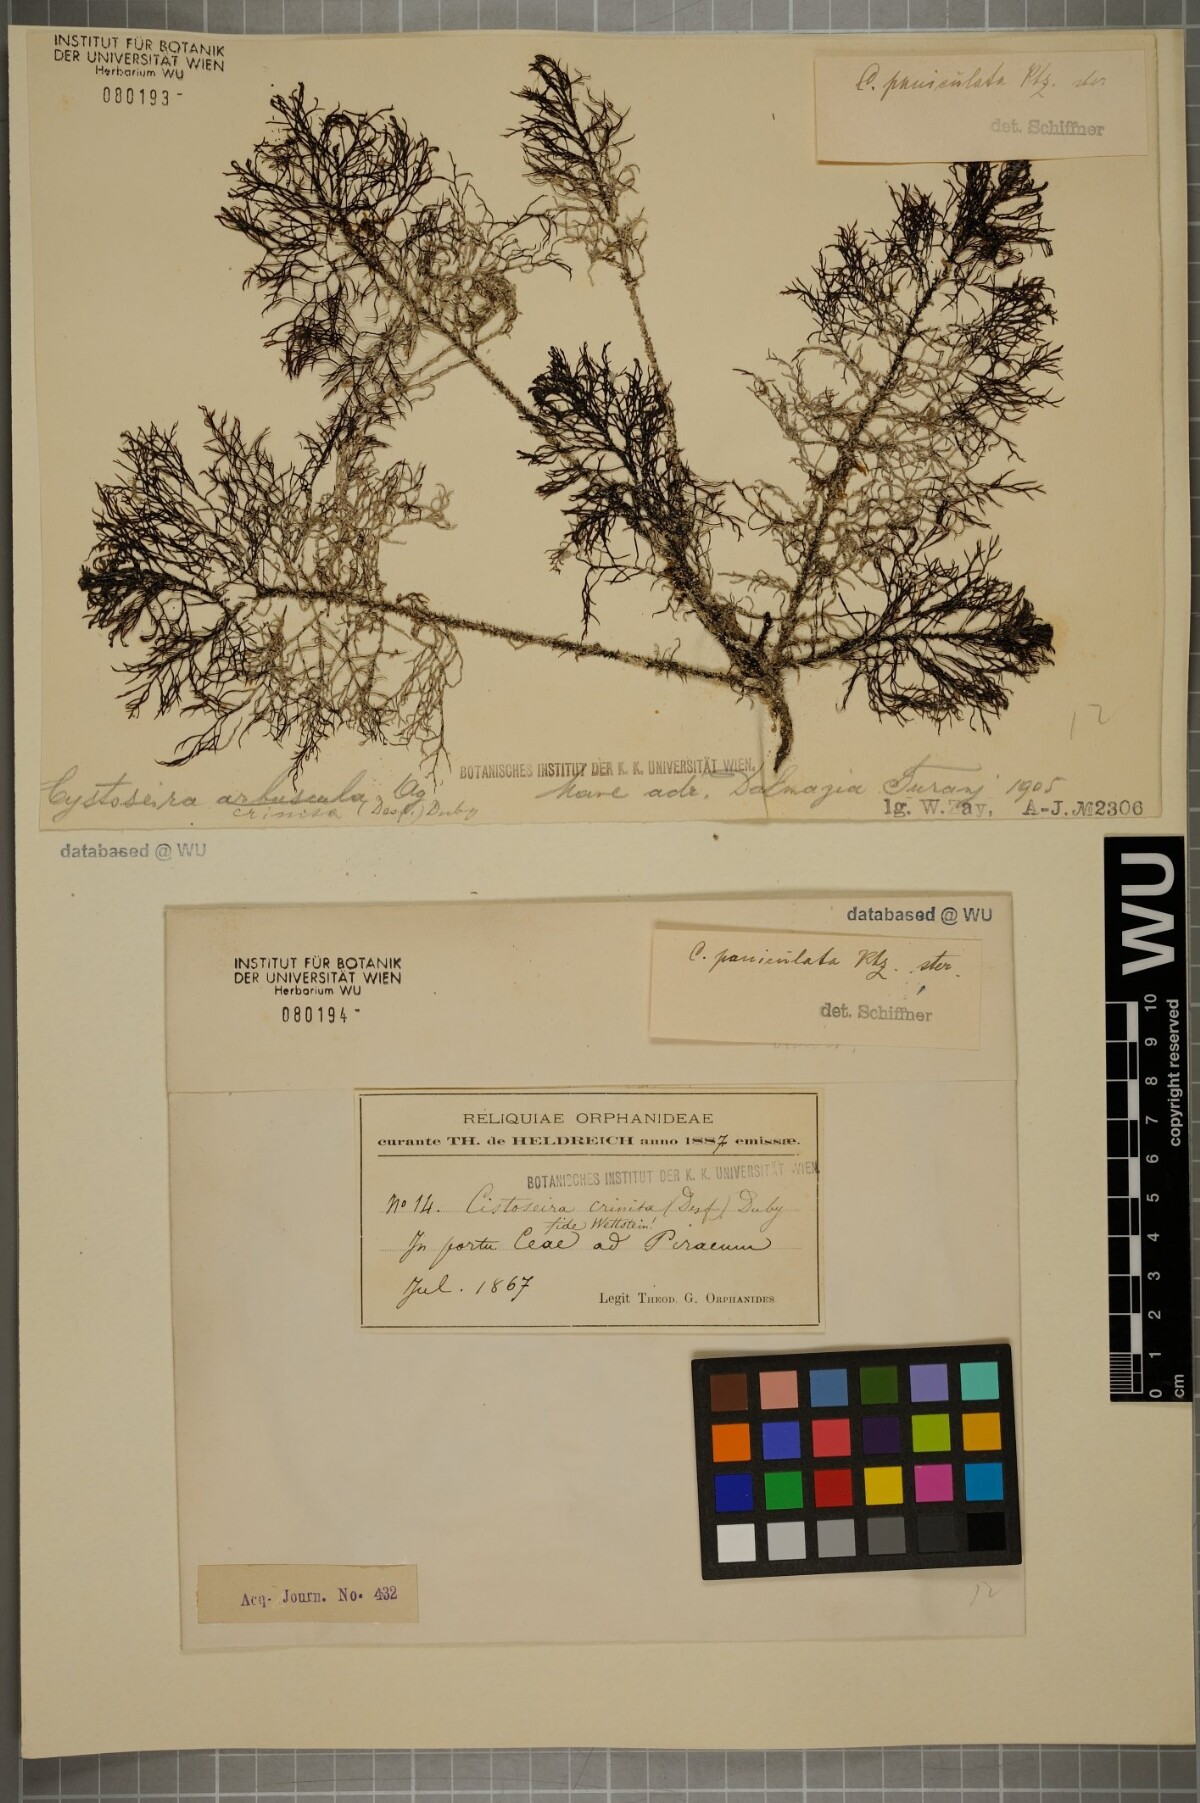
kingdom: Chromista
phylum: Ochrophyta
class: Phaeophyceae
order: Fucales
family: Sargassaceae
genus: Cystoseira
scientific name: Cystoseira
